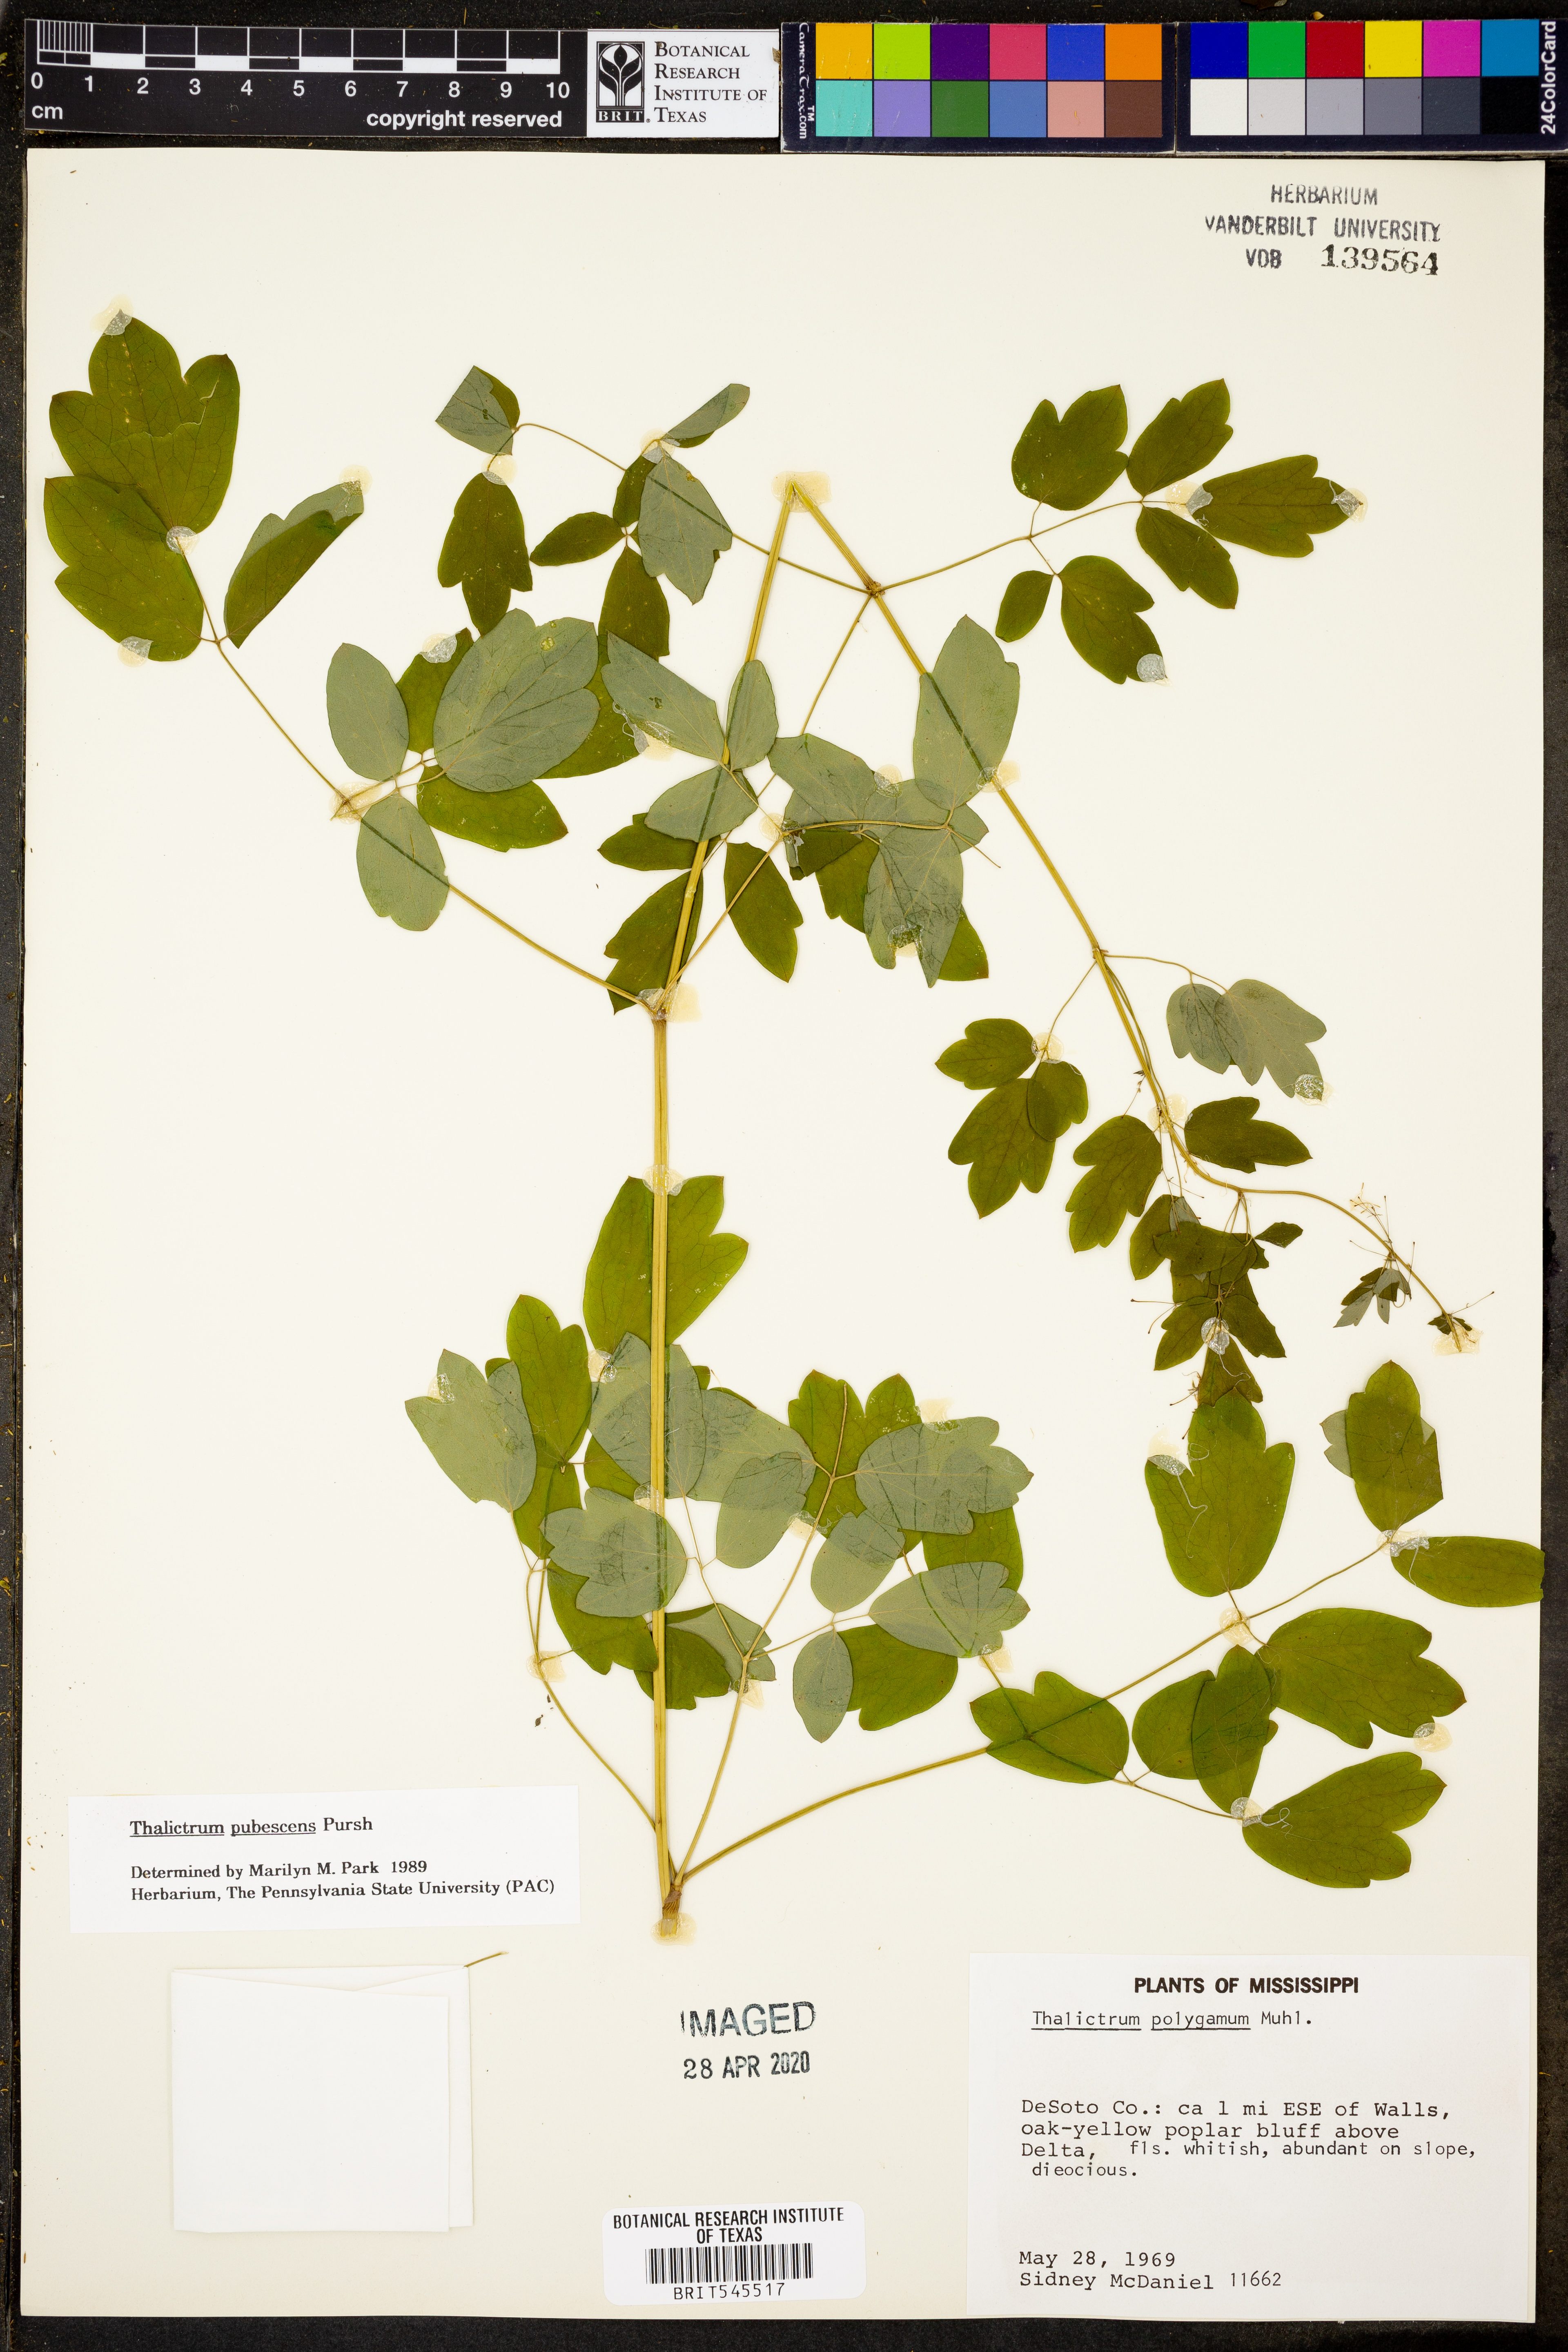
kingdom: Plantae
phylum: Tracheophyta
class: Magnoliopsida
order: Ranunculales
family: Ranunculaceae
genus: Thalictrum
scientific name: Thalictrum pubescens
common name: King-of-the-meadow
